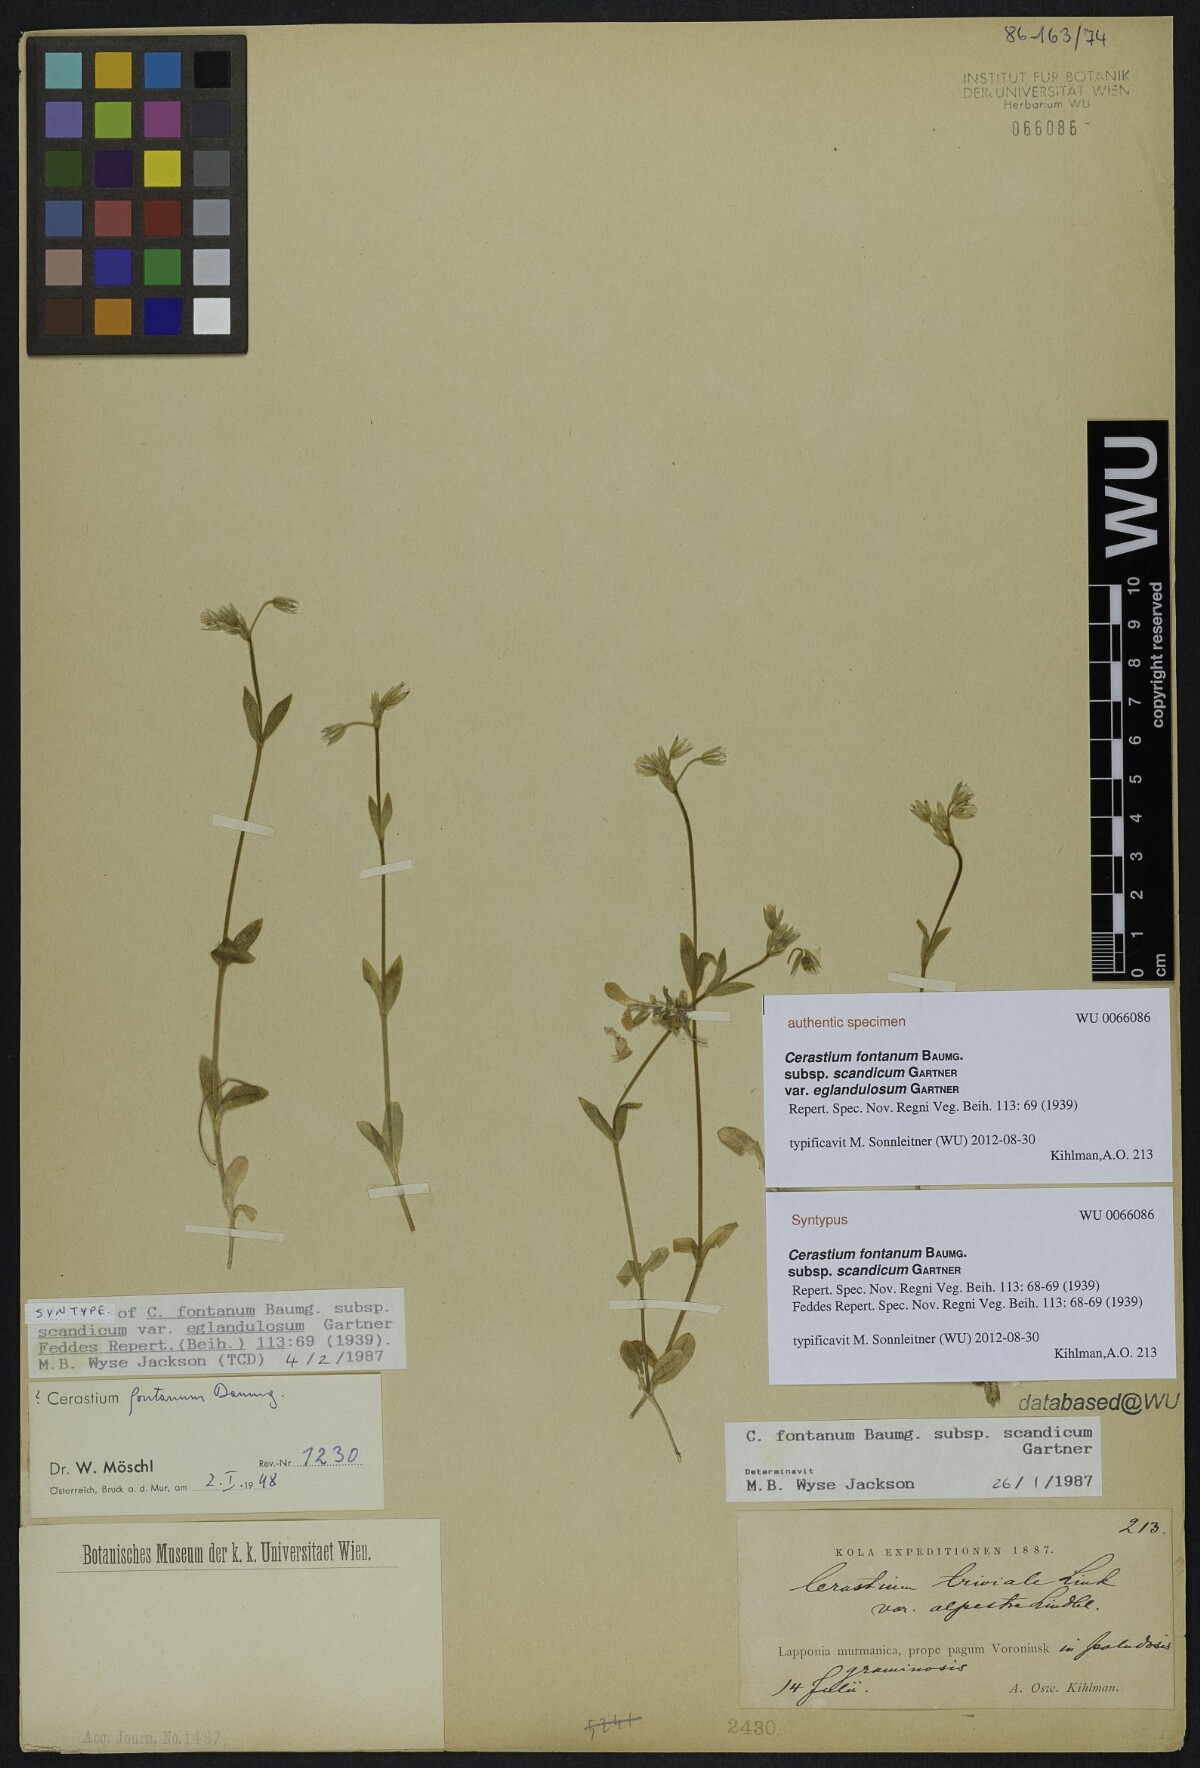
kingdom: Plantae
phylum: Tracheophyta
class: Magnoliopsida
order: Caryophyllales
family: Caryophyllaceae
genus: Cerastium
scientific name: Cerastium holosteoides
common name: Big chickweed
